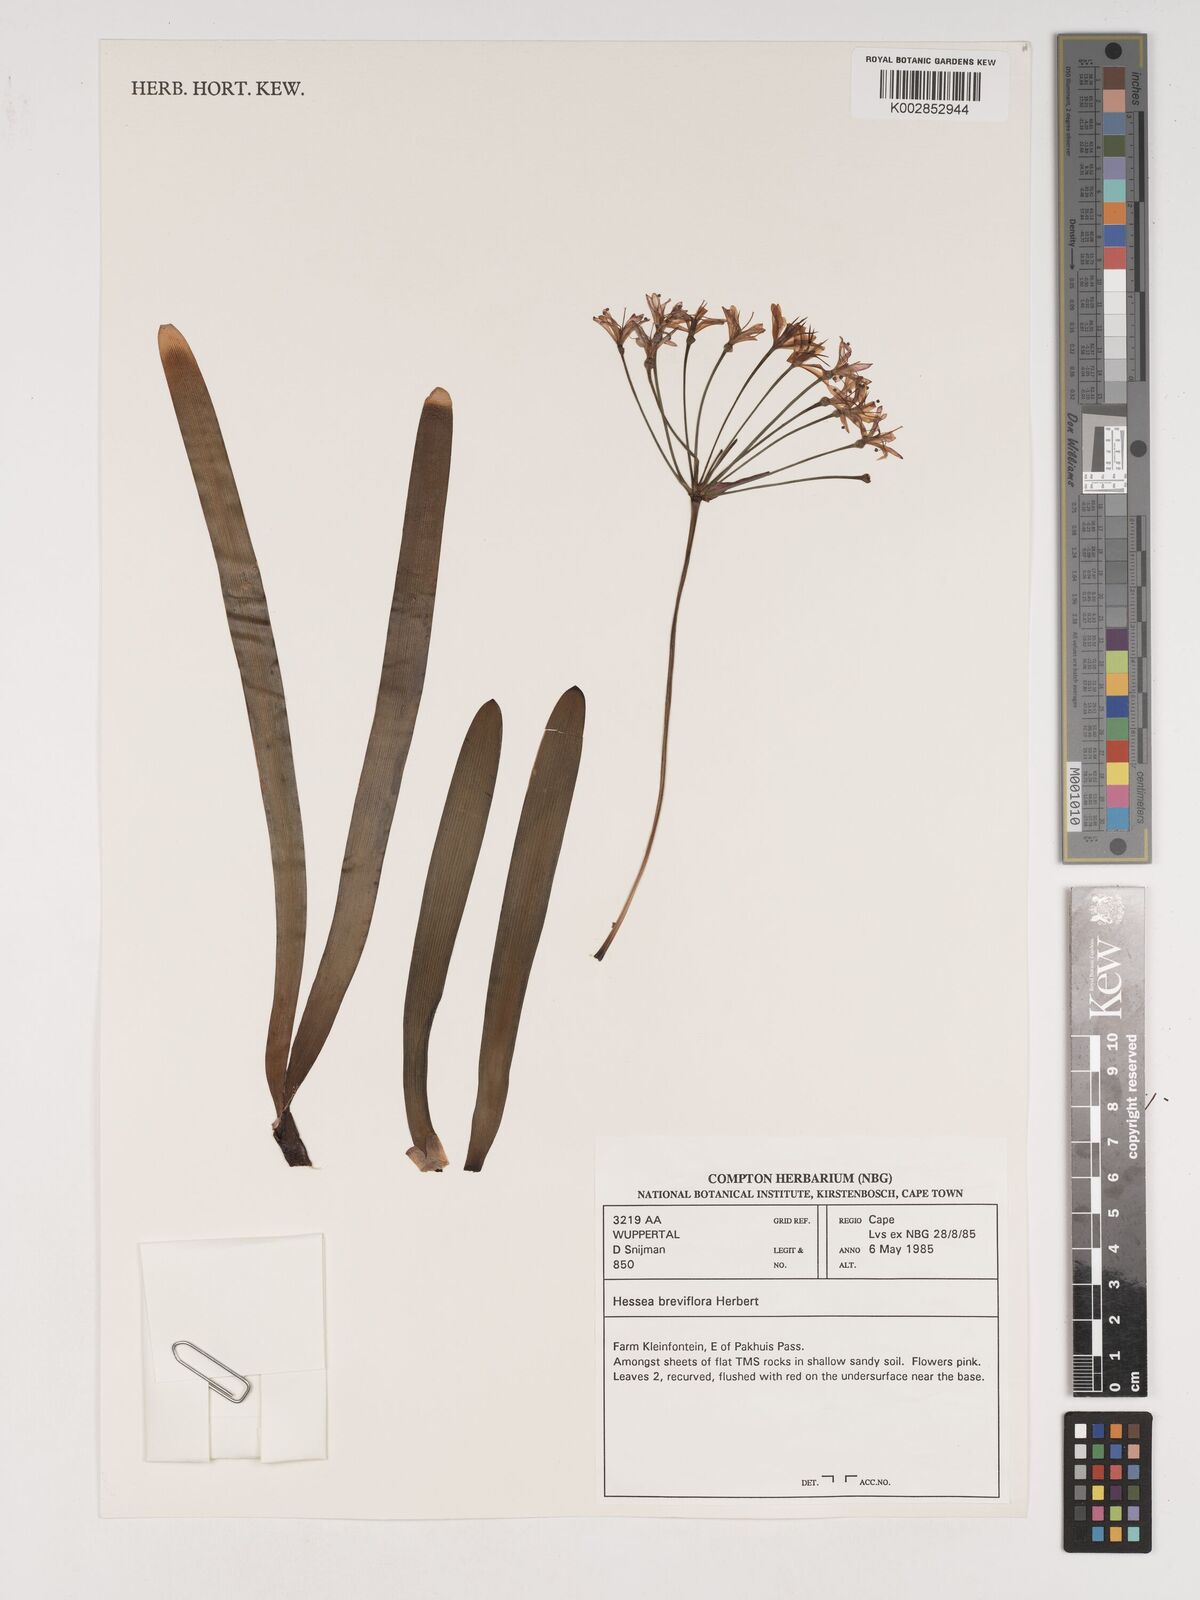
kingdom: Plantae
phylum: Tracheophyta
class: Liliopsida
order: Asparagales
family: Amaryllidaceae
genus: Hessea
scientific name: Hessea breviflora
